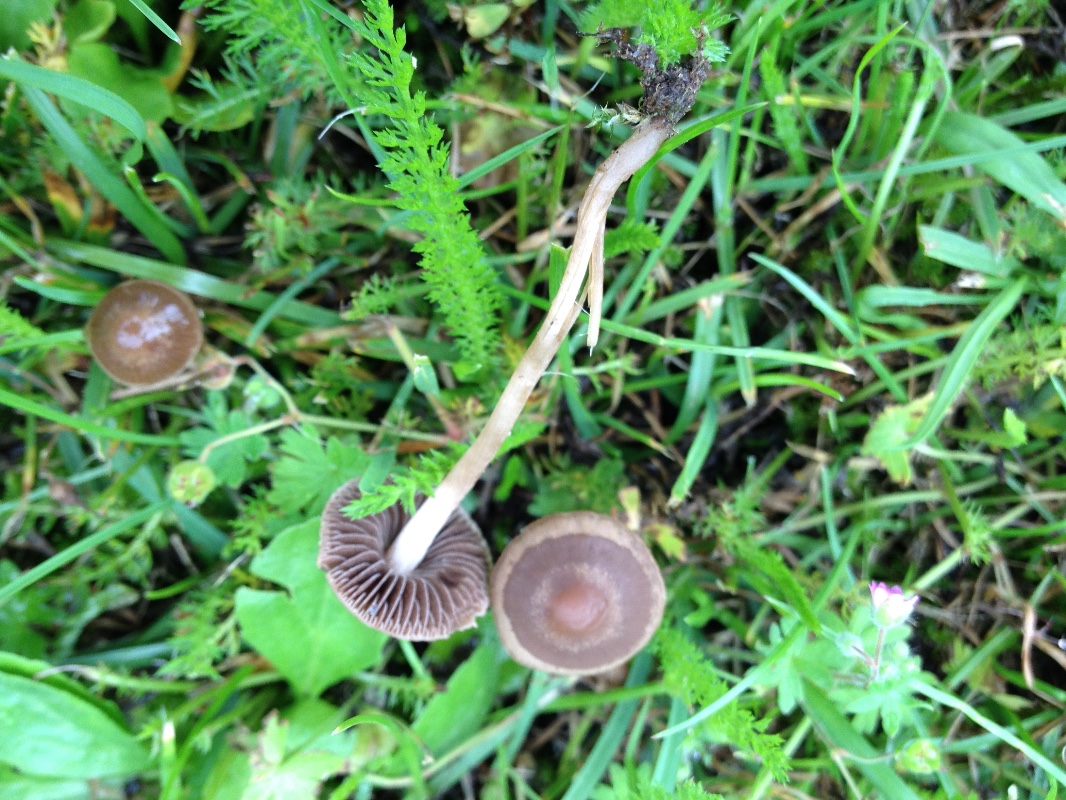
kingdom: Fungi
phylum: Basidiomycota
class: Agaricomycetes
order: Agaricales
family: Bolbitiaceae
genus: Panaeolina
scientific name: Panaeolina foenisecii
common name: høslætsvamp
